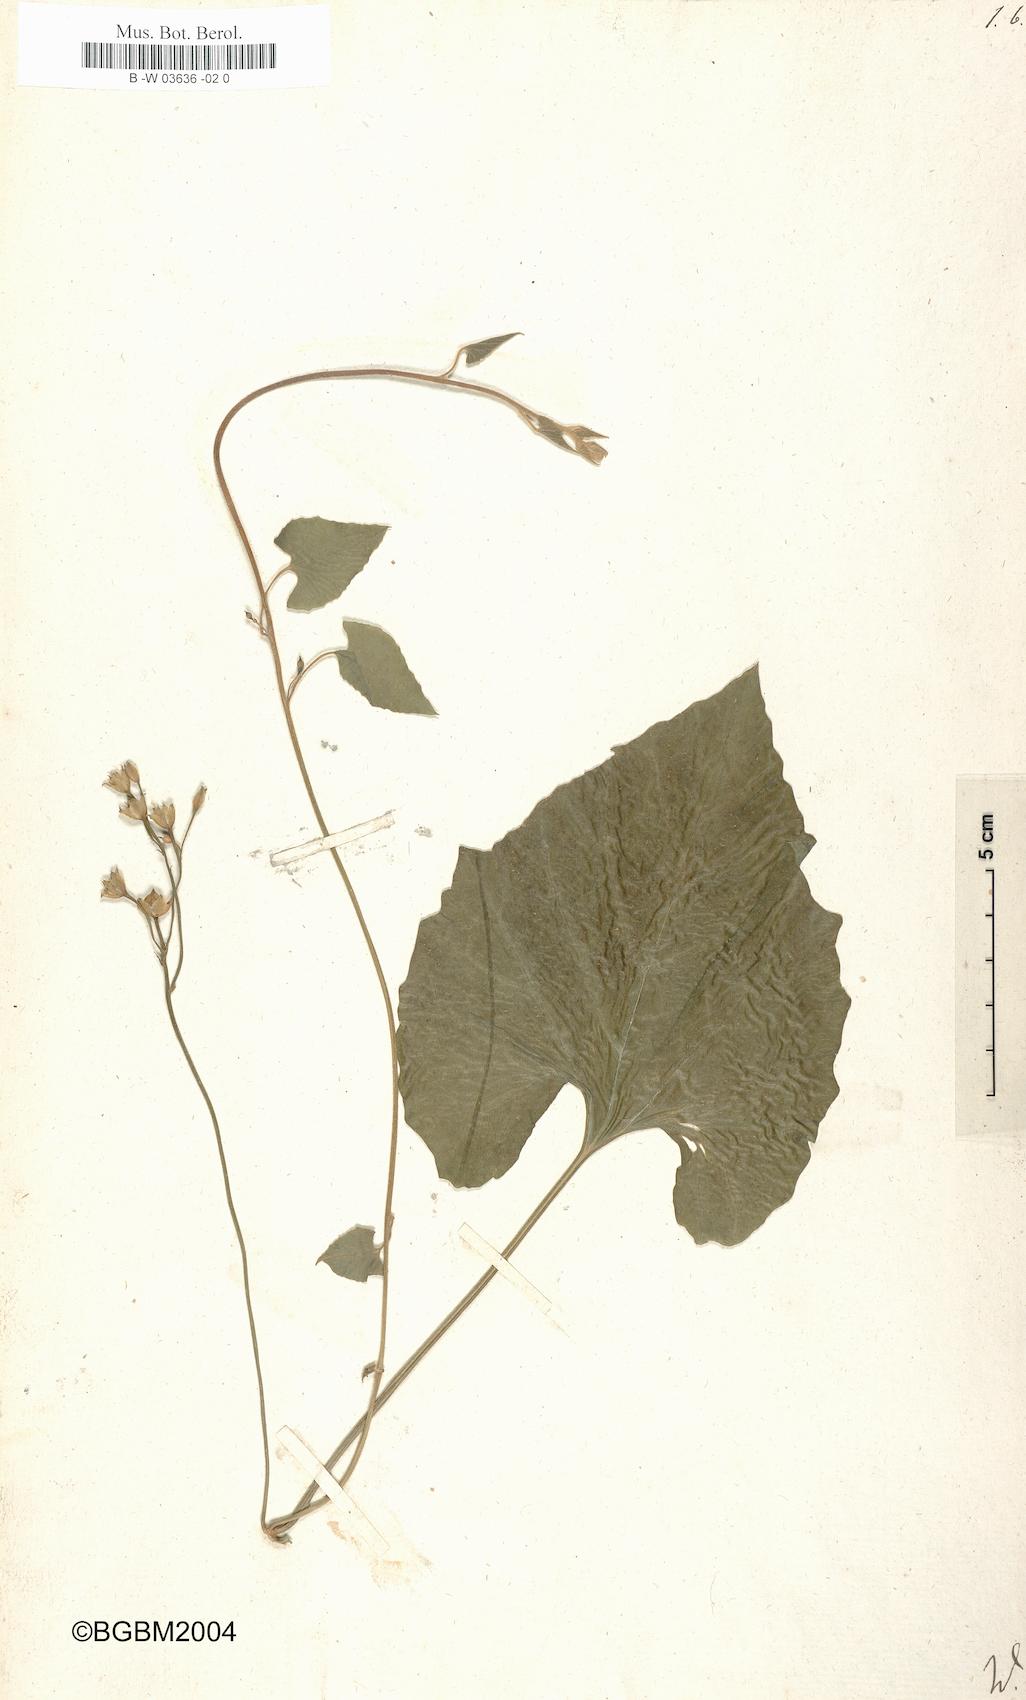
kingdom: Plantae
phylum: Tracheophyta
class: Magnoliopsida
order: Solanales
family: Convolvulaceae
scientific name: Convolvulaceae
